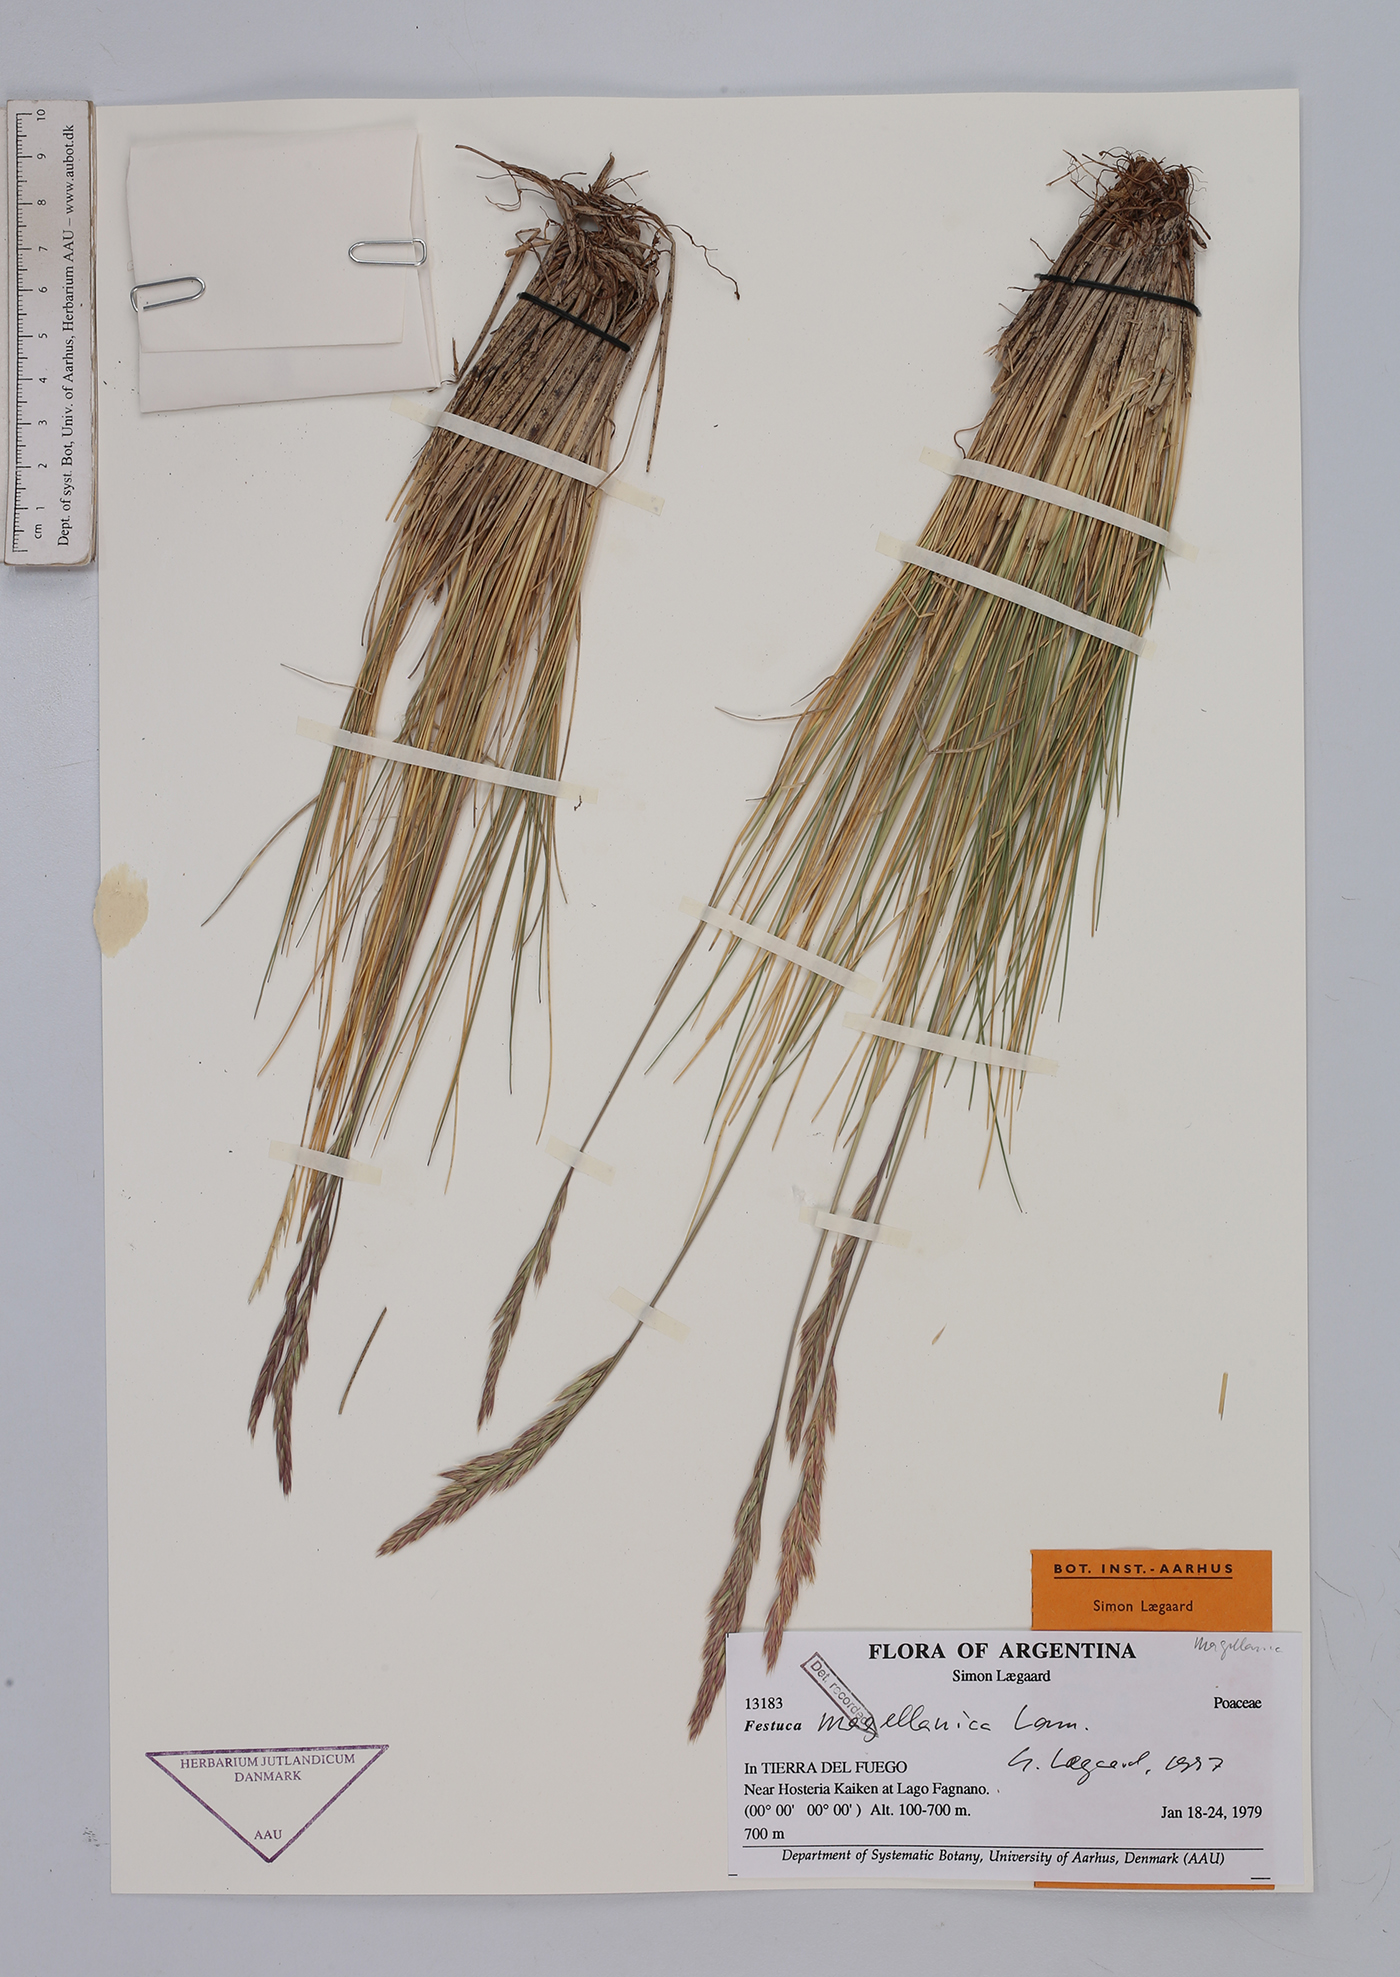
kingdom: Plantae
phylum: Tracheophyta
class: Liliopsida
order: Poales
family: Poaceae
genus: Festuca
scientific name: Festuca magellanica
